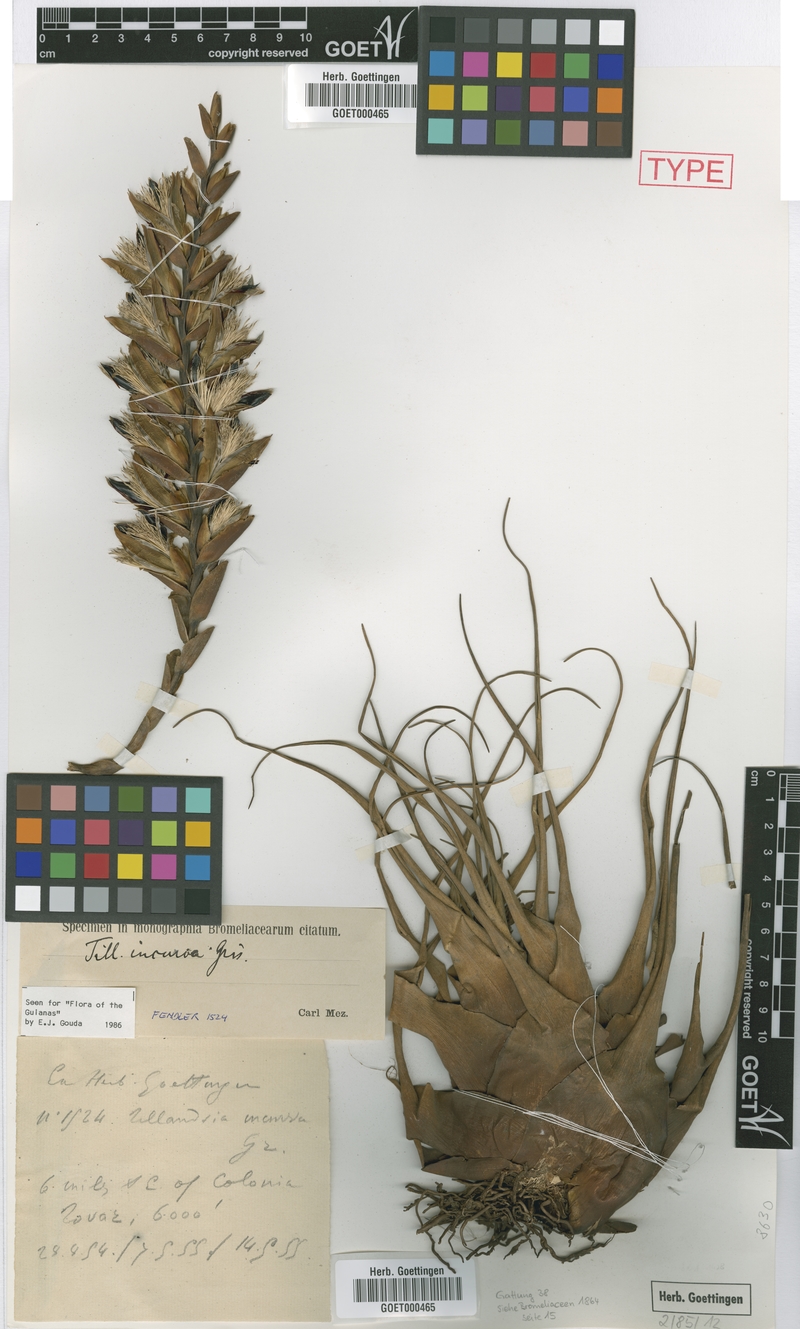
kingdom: Plantae
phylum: Tracheophyta
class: Liliopsida
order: Poales
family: Bromeliaceae
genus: Vriesea
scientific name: Vriesea incurva
